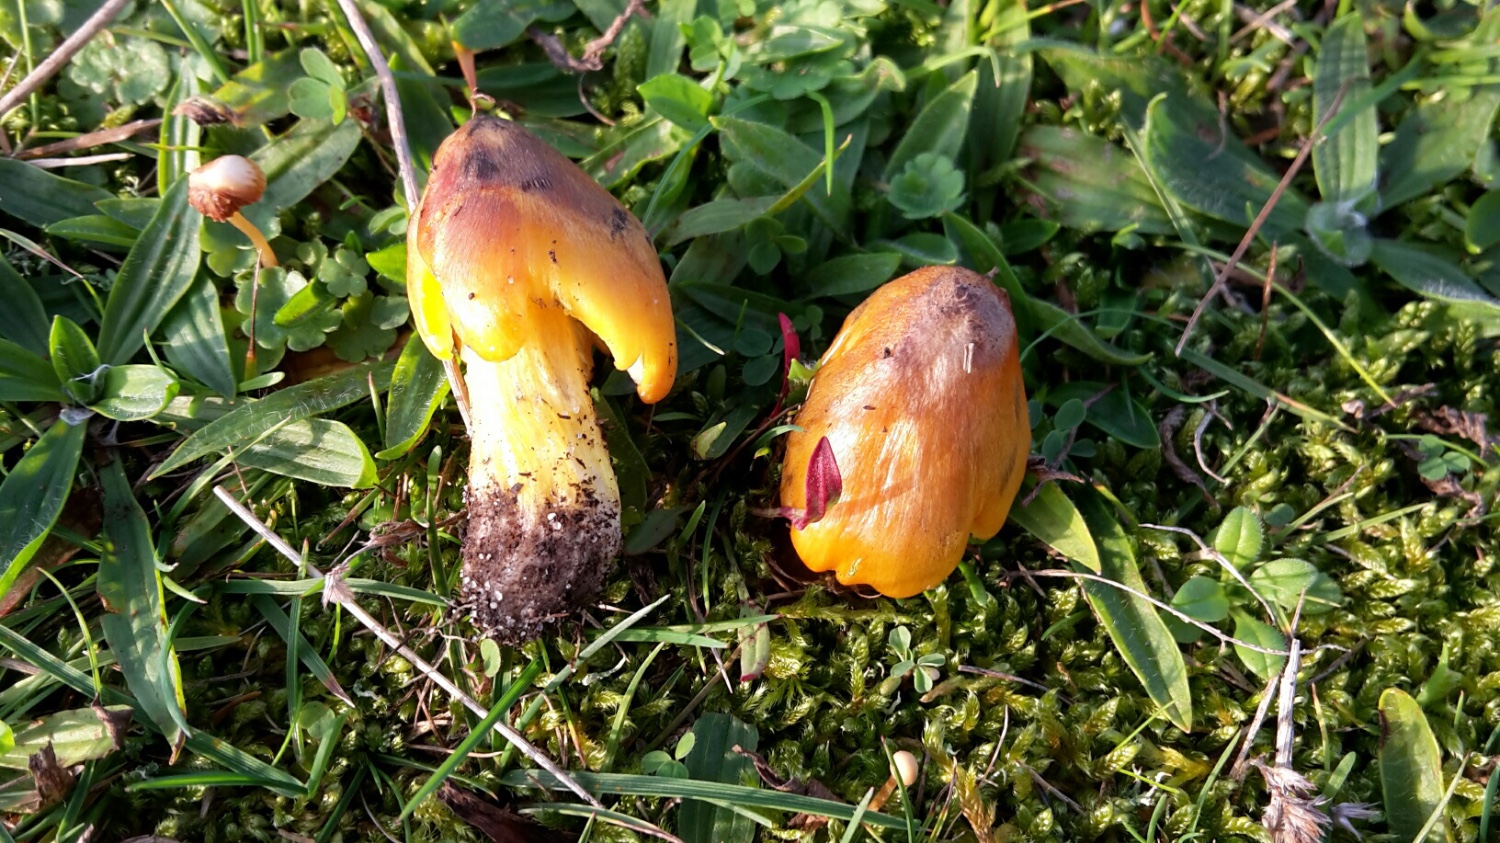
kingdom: Fungi
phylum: Basidiomycota
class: Agaricomycetes
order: Agaricales
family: Hygrophoraceae
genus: Hygrocybe
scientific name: Hygrocybe conica
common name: kegle-vokshat
